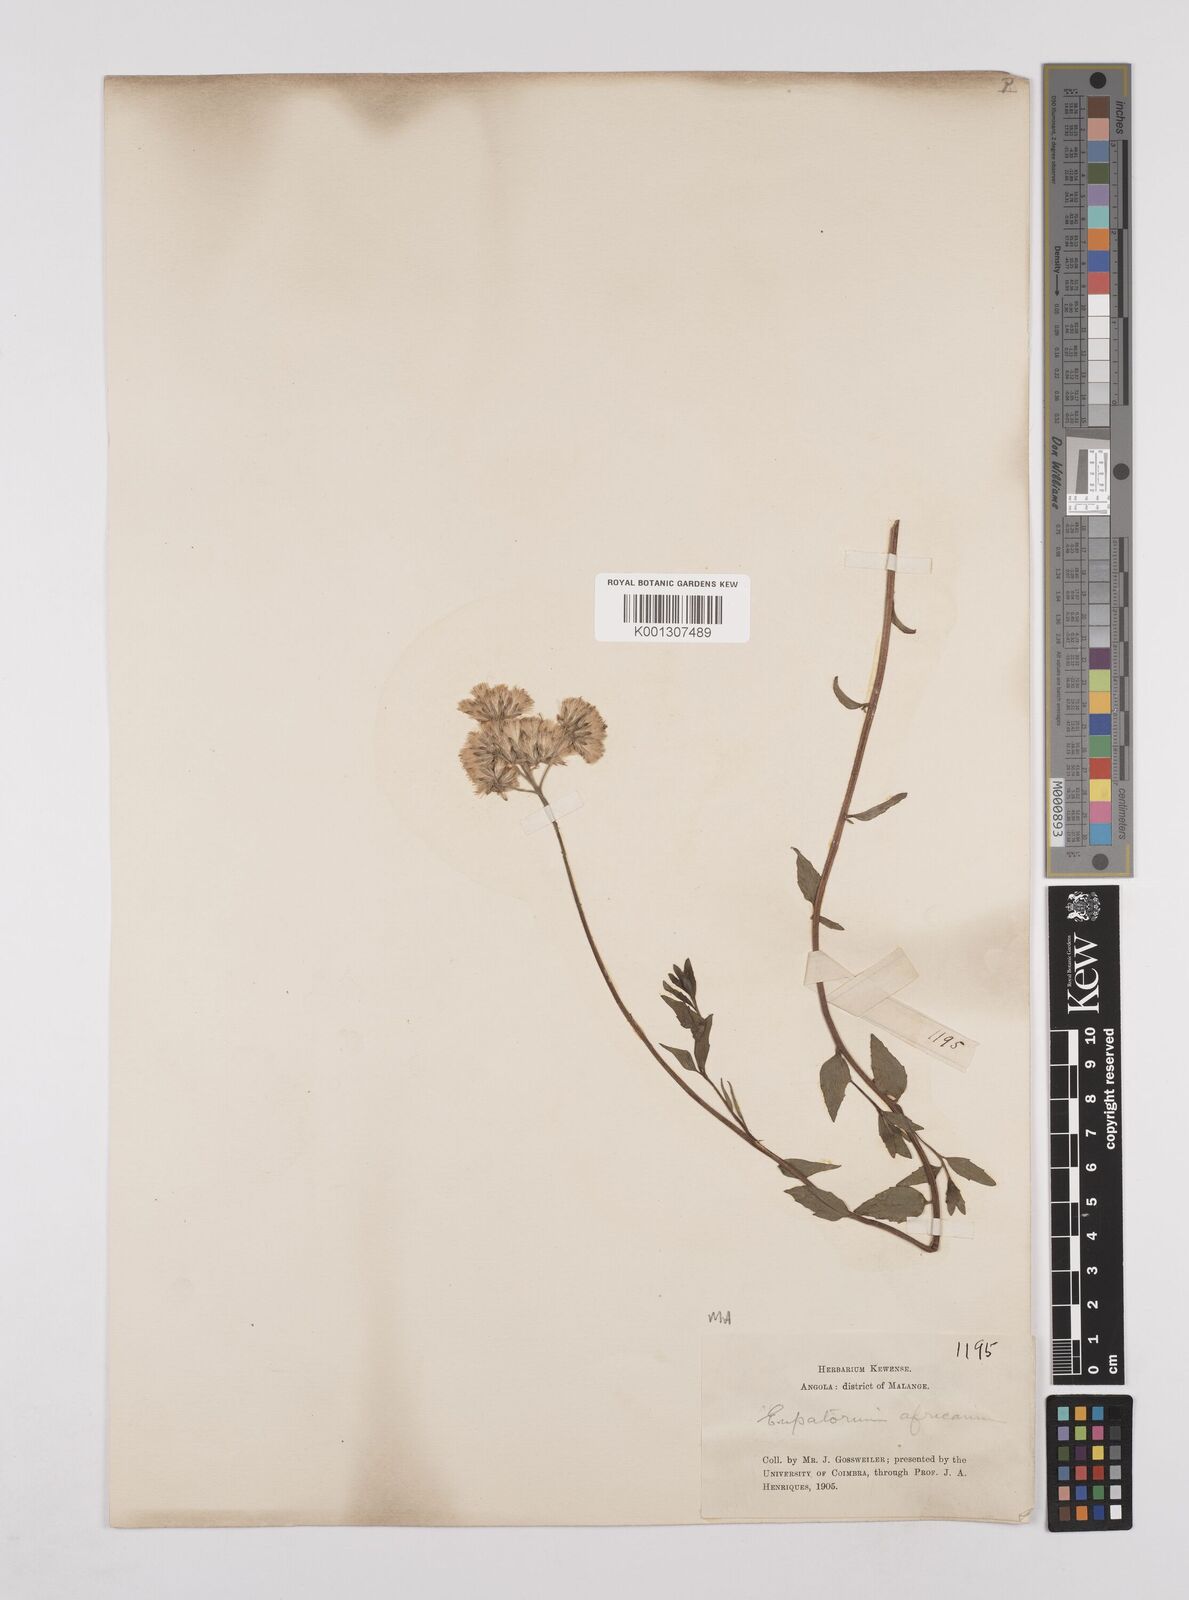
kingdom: Plantae
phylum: Tracheophyta
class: Magnoliopsida
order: Asterales
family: Asteraceae
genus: Stomatanthes
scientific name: Stomatanthes africanus
